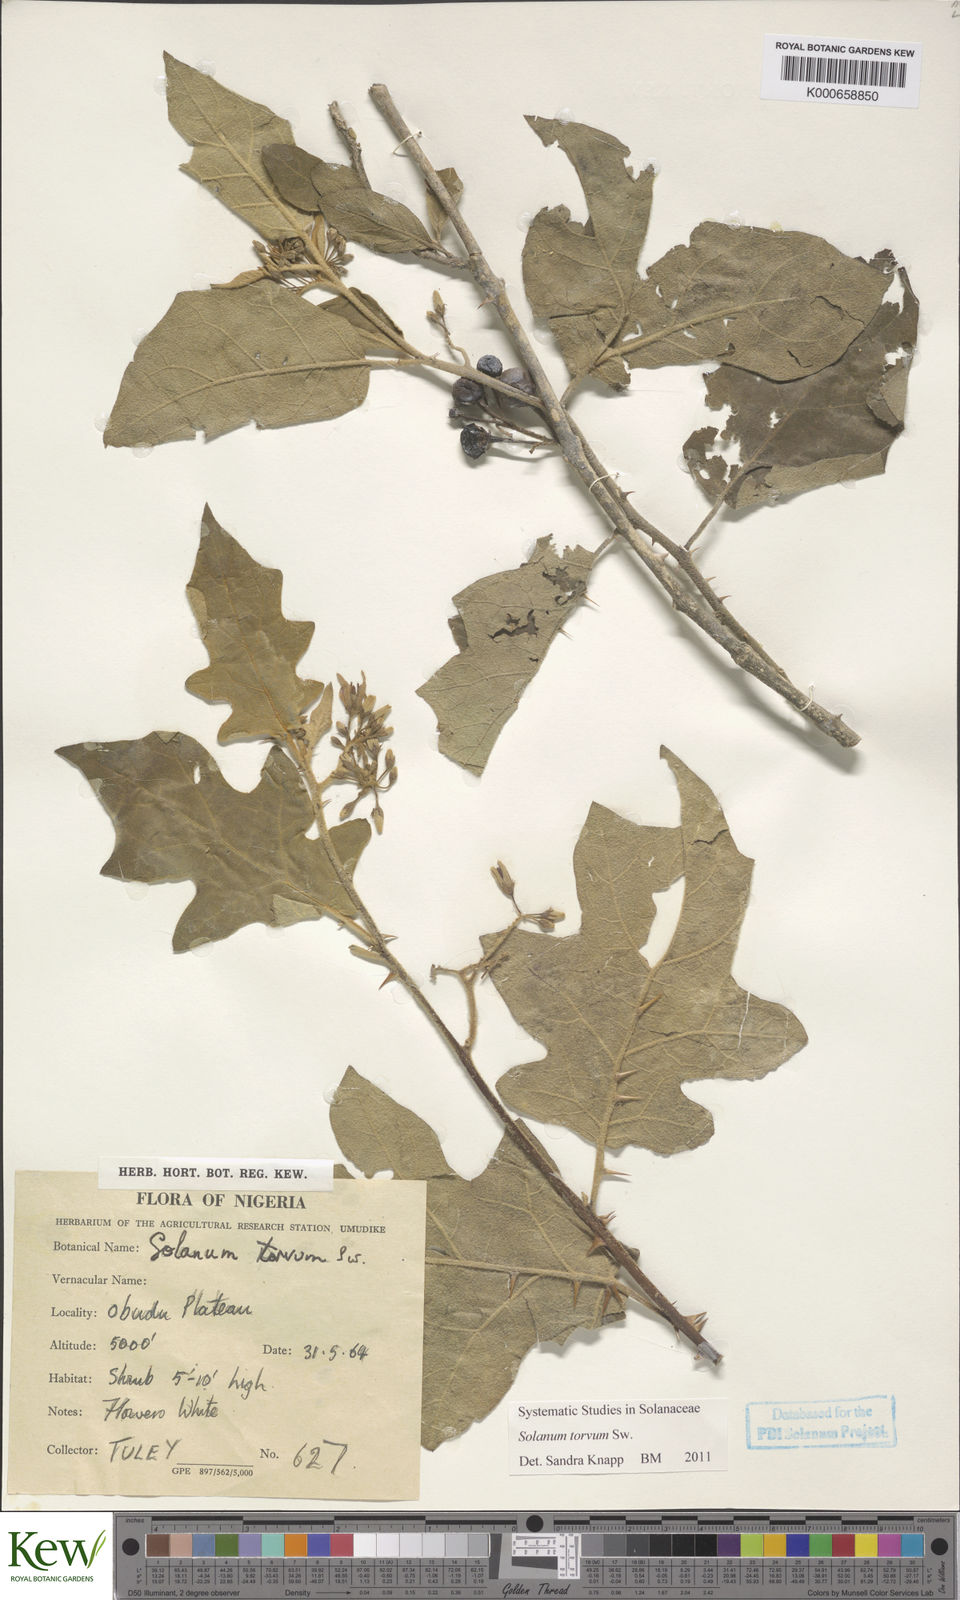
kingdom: Plantae
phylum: Tracheophyta
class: Magnoliopsida
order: Solanales
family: Solanaceae
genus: Solanum
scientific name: Solanum torvum
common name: Turkey berry
